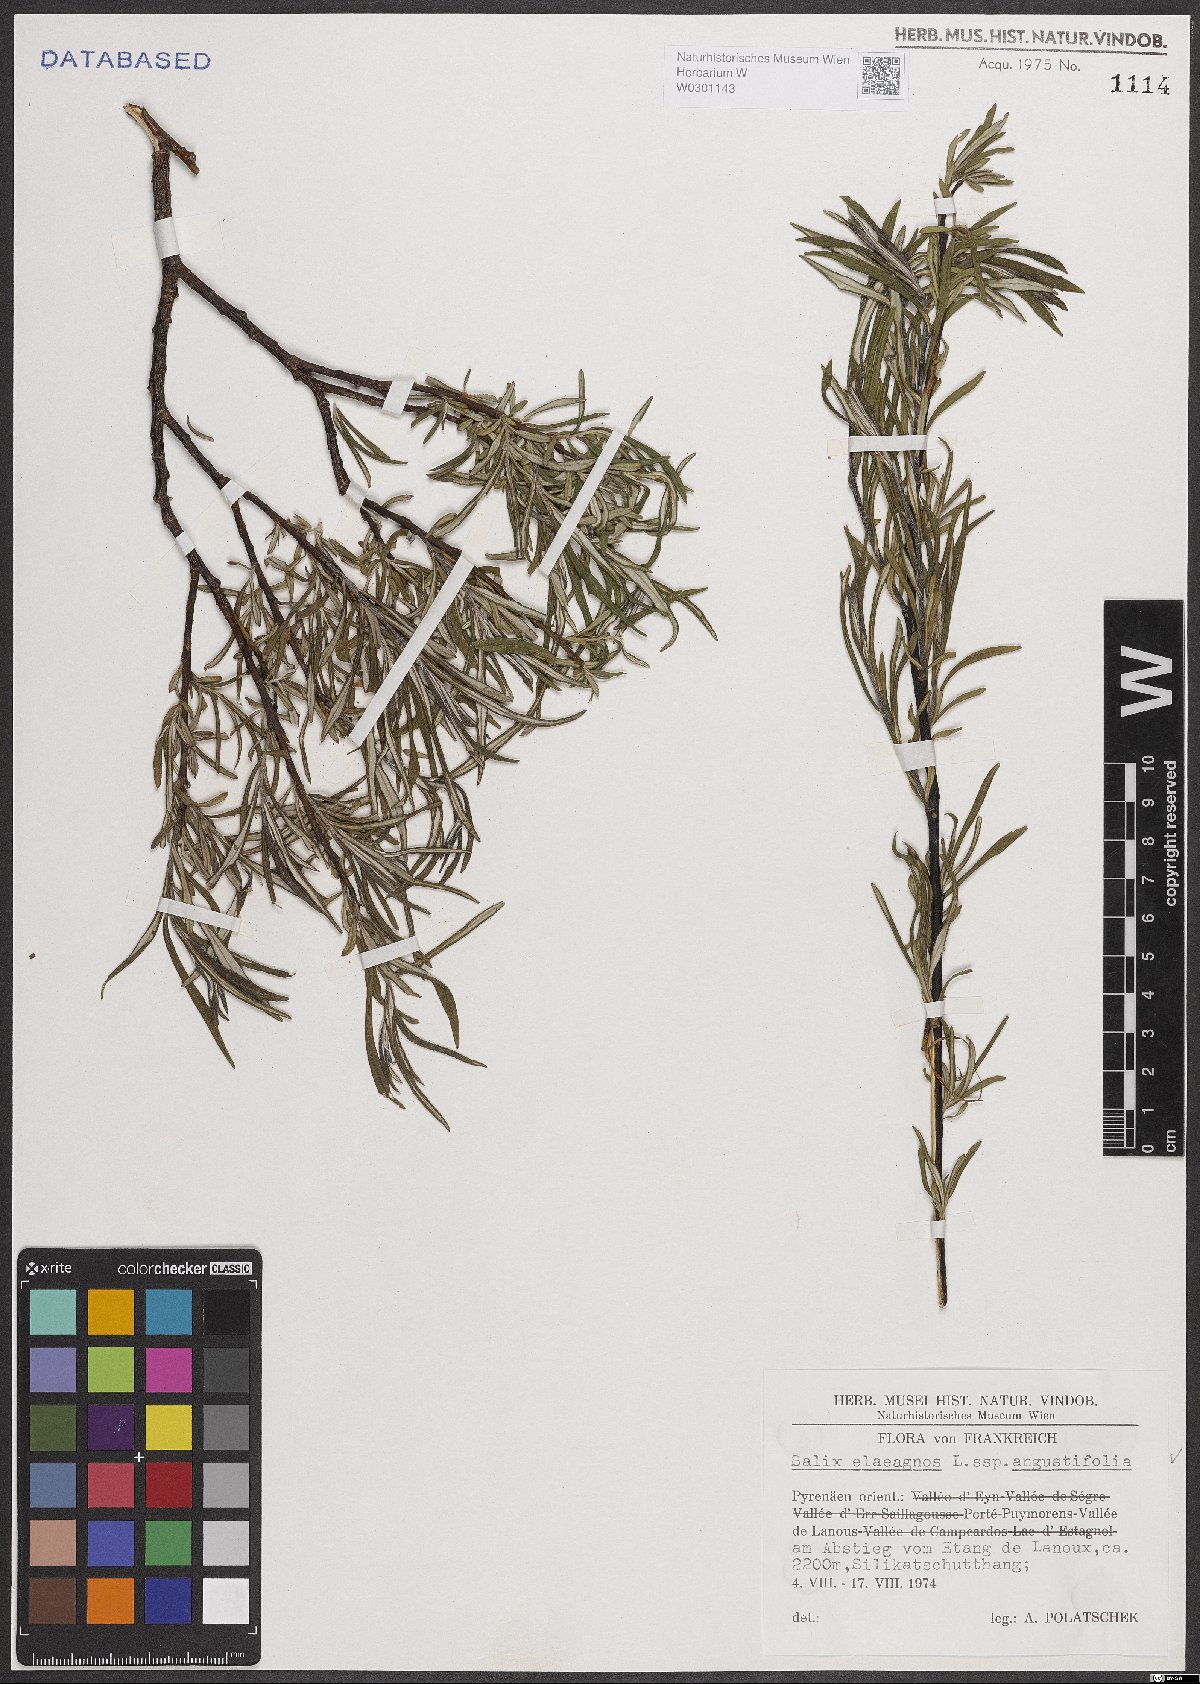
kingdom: Plantae
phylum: Tracheophyta
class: Magnoliopsida
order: Malpighiales
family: Salicaceae
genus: Salix
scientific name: Salix eleagnos
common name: Elaeagnus willow
